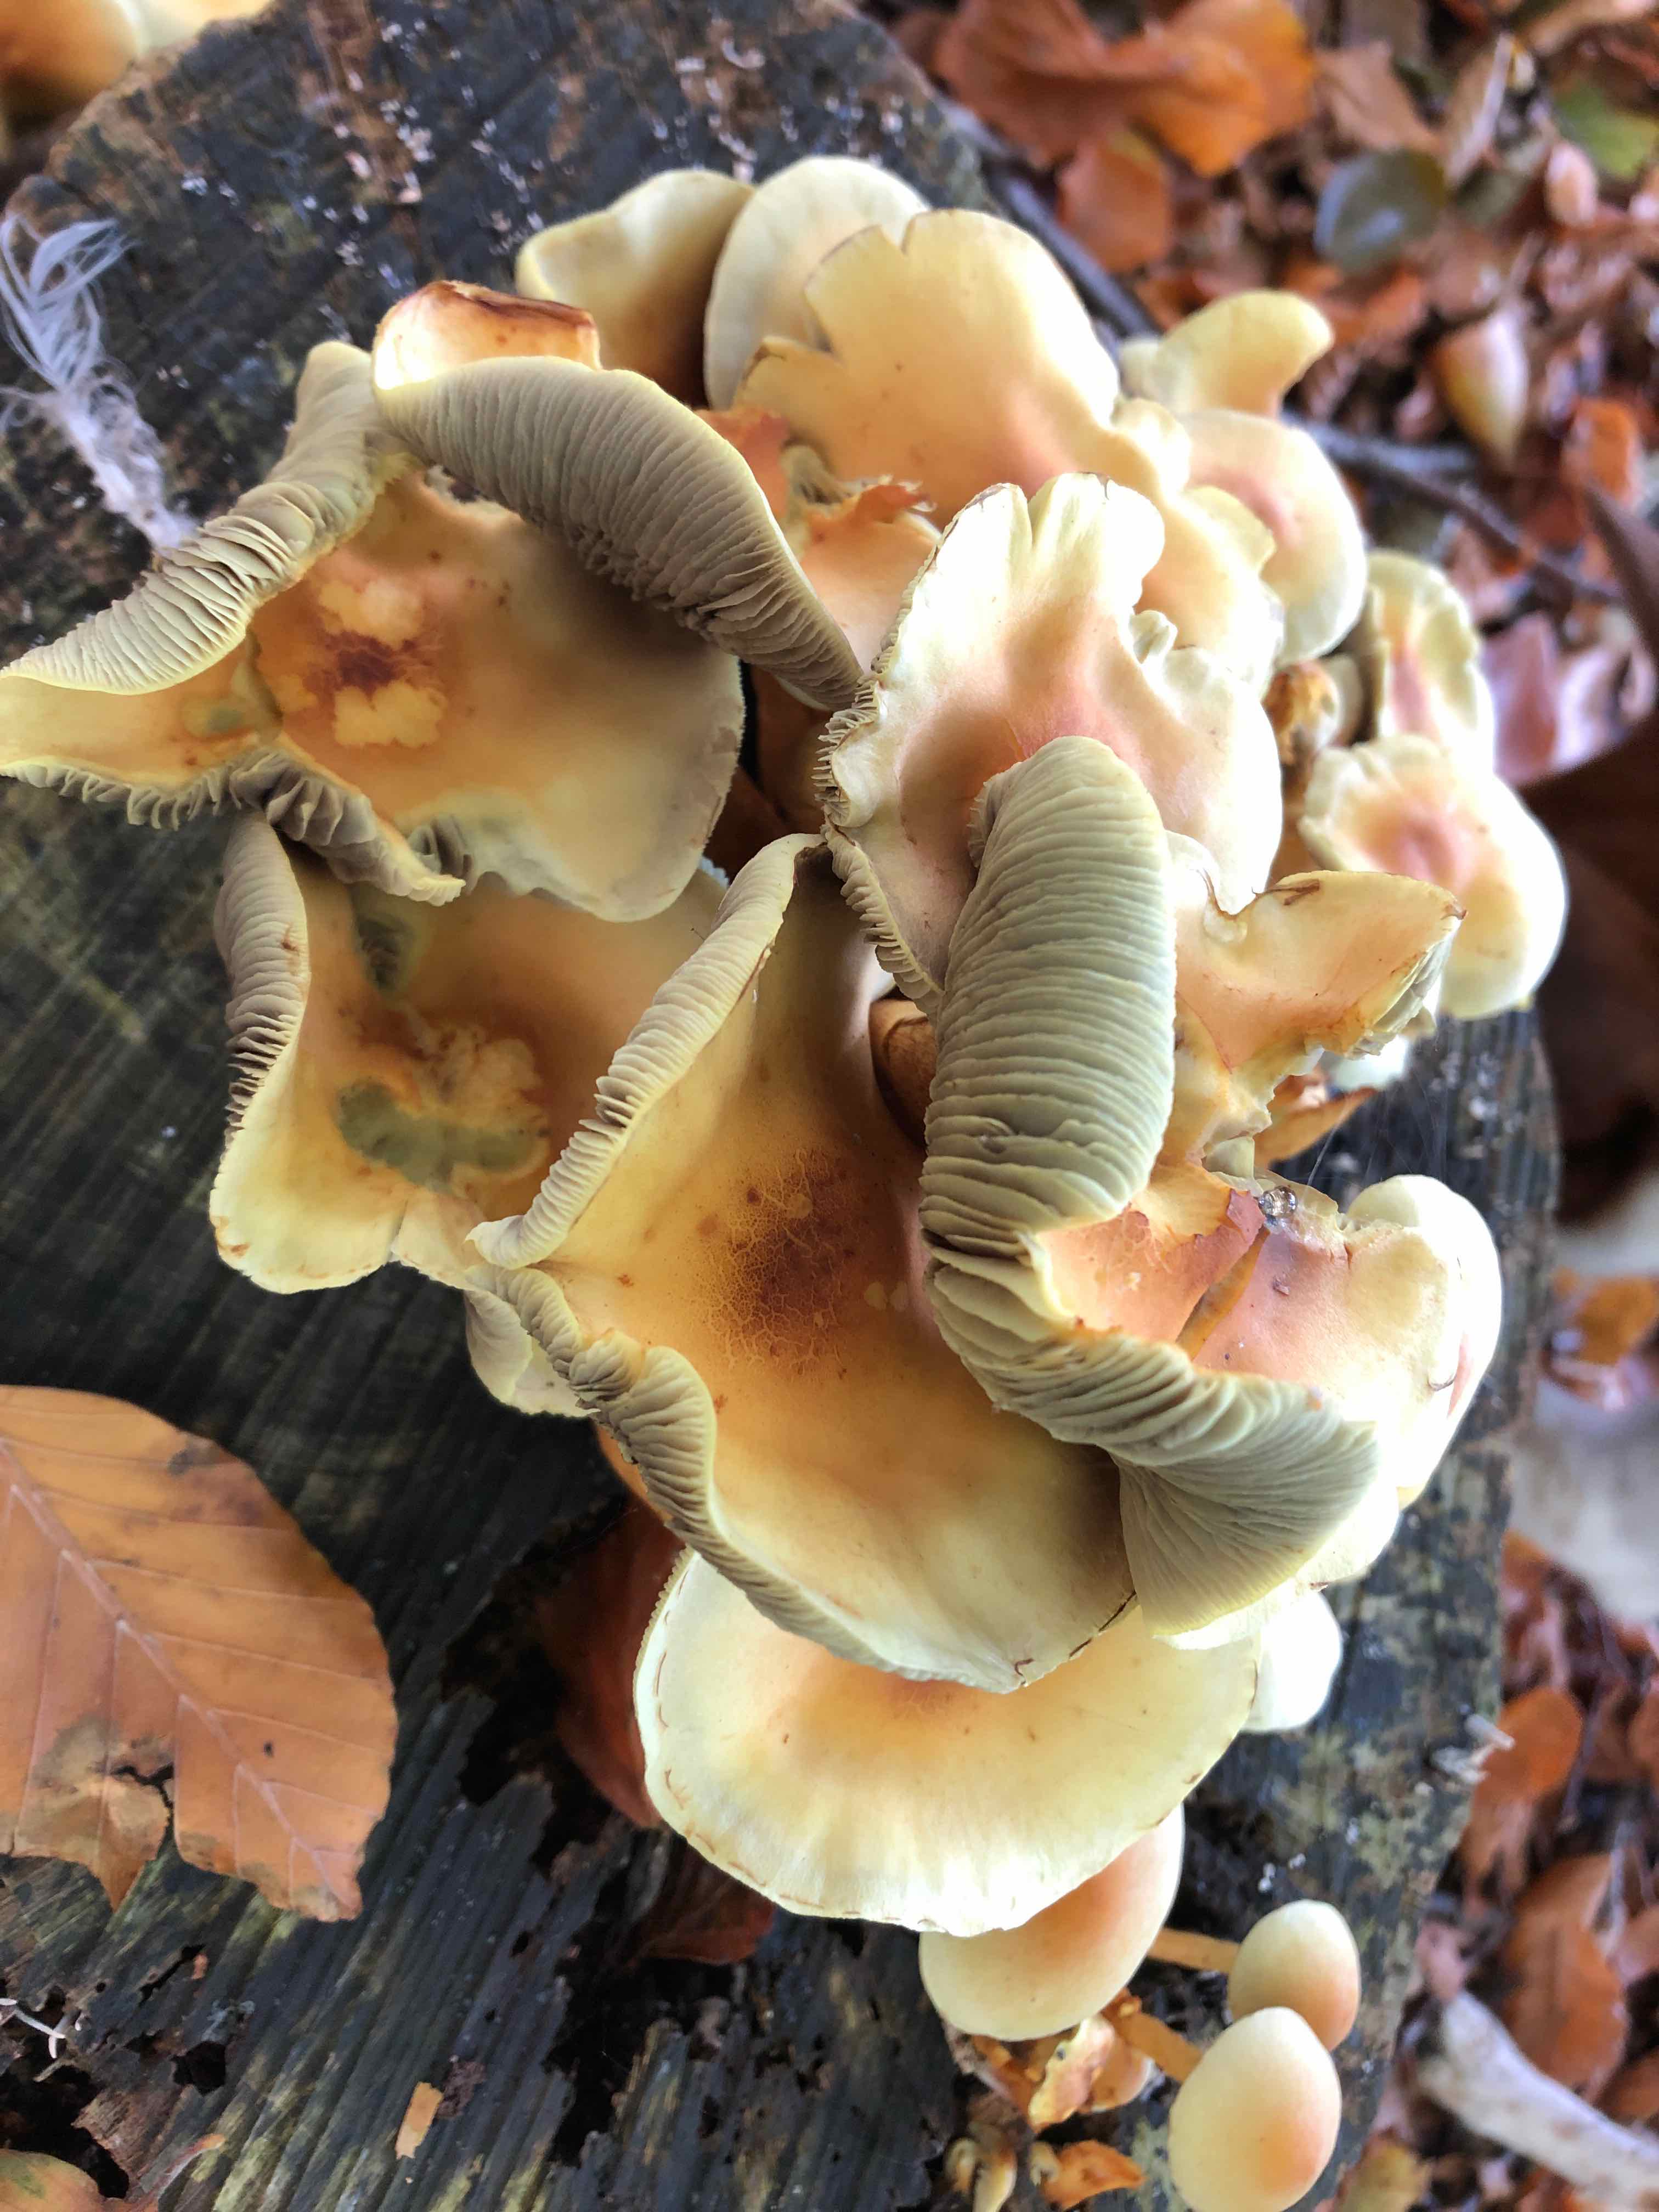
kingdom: Fungi
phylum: Basidiomycota
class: Agaricomycetes
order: Agaricales
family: Strophariaceae
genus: Hypholoma
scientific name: Hypholoma fasciculare
